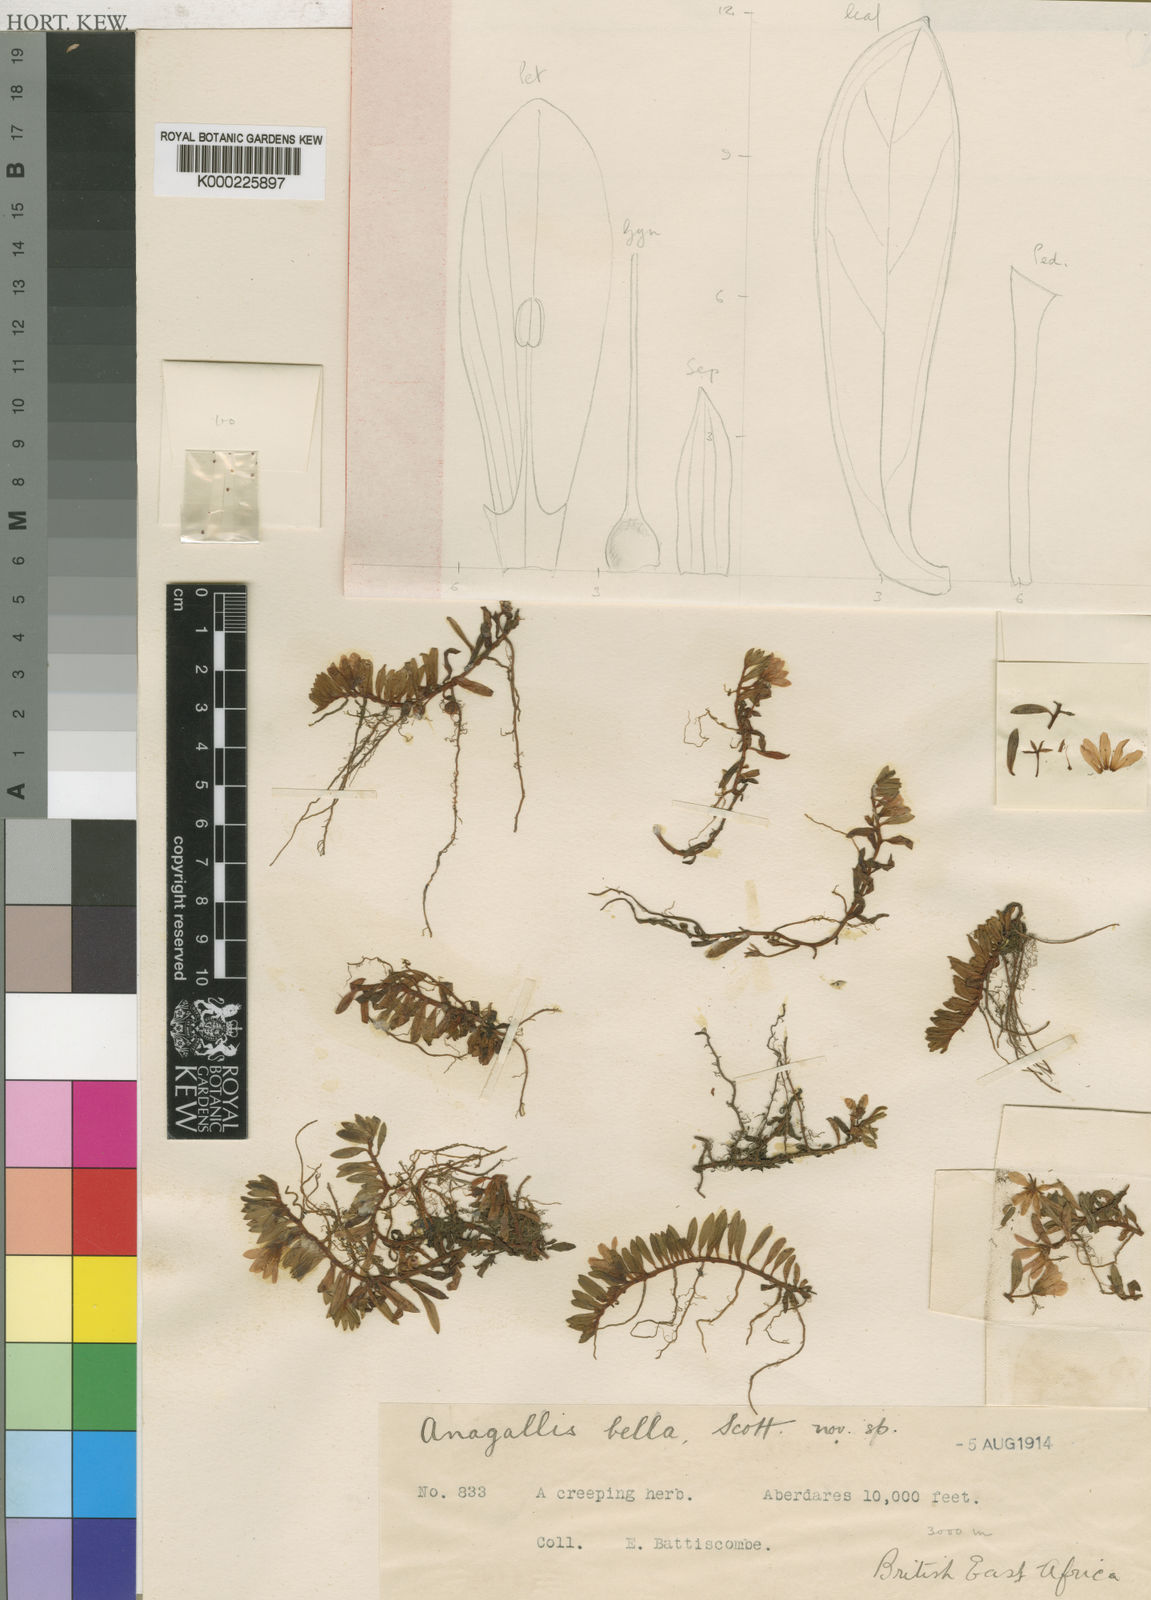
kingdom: Plantae
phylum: Tracheophyta
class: Magnoliopsida
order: Ericales
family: Primulaceae
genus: Lysimachia
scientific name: Lysimachia Anagallis spec
